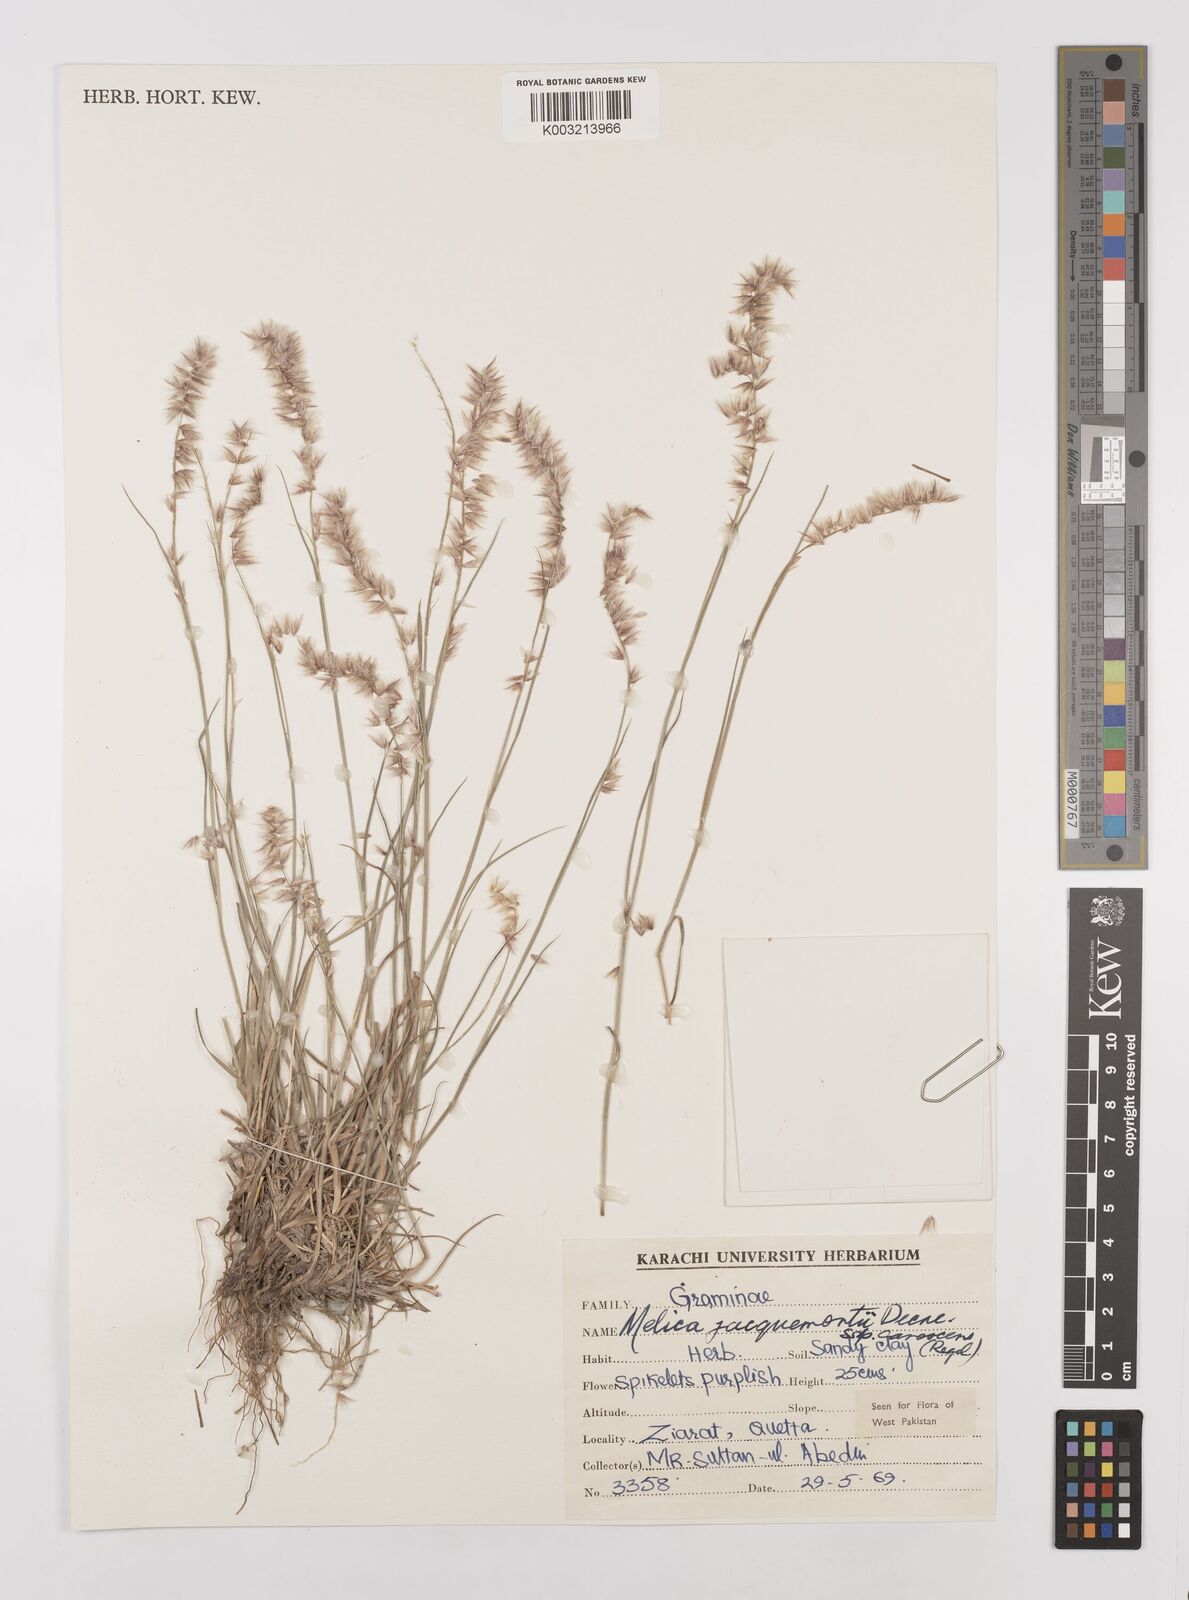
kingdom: Plantae
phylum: Tracheophyta
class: Liliopsida
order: Poales
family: Poaceae
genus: Melica
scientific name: Melica persica
